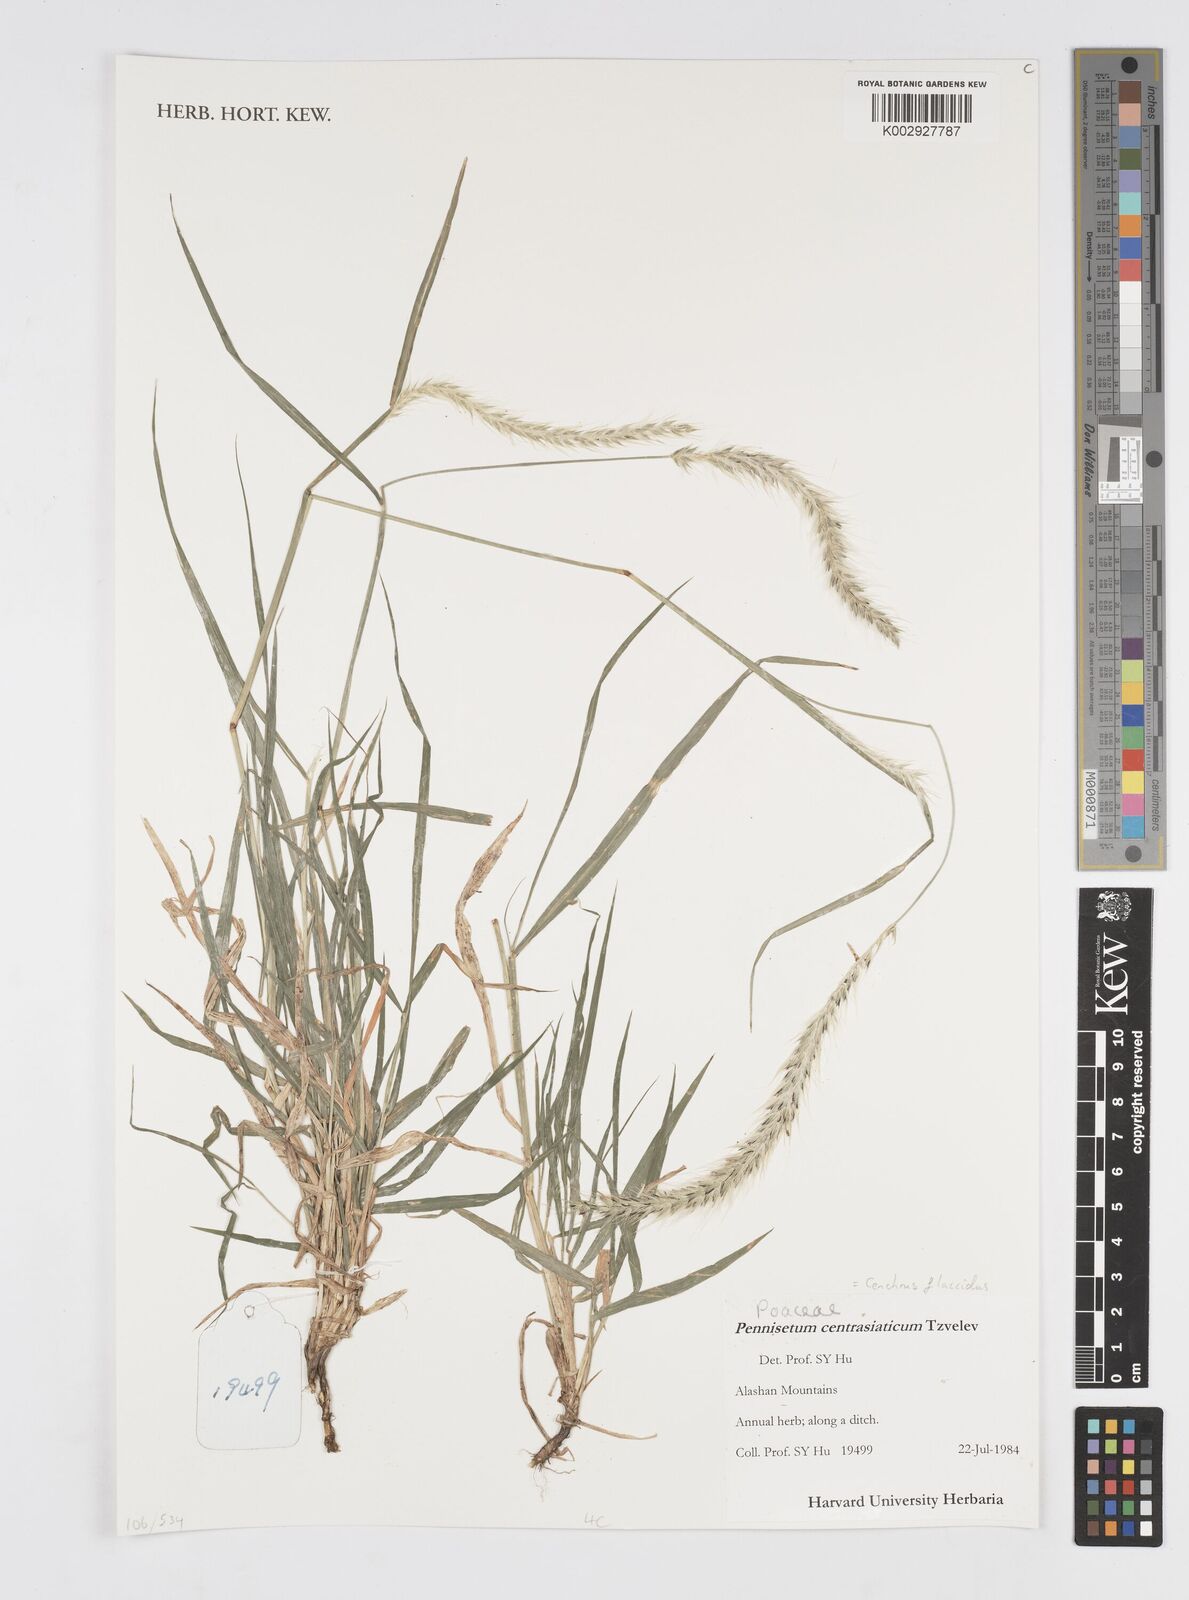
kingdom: Plantae
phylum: Tracheophyta
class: Liliopsida
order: Poales
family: Poaceae
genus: Cenchrus
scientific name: Cenchrus flaccidus
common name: Flaccid grass
